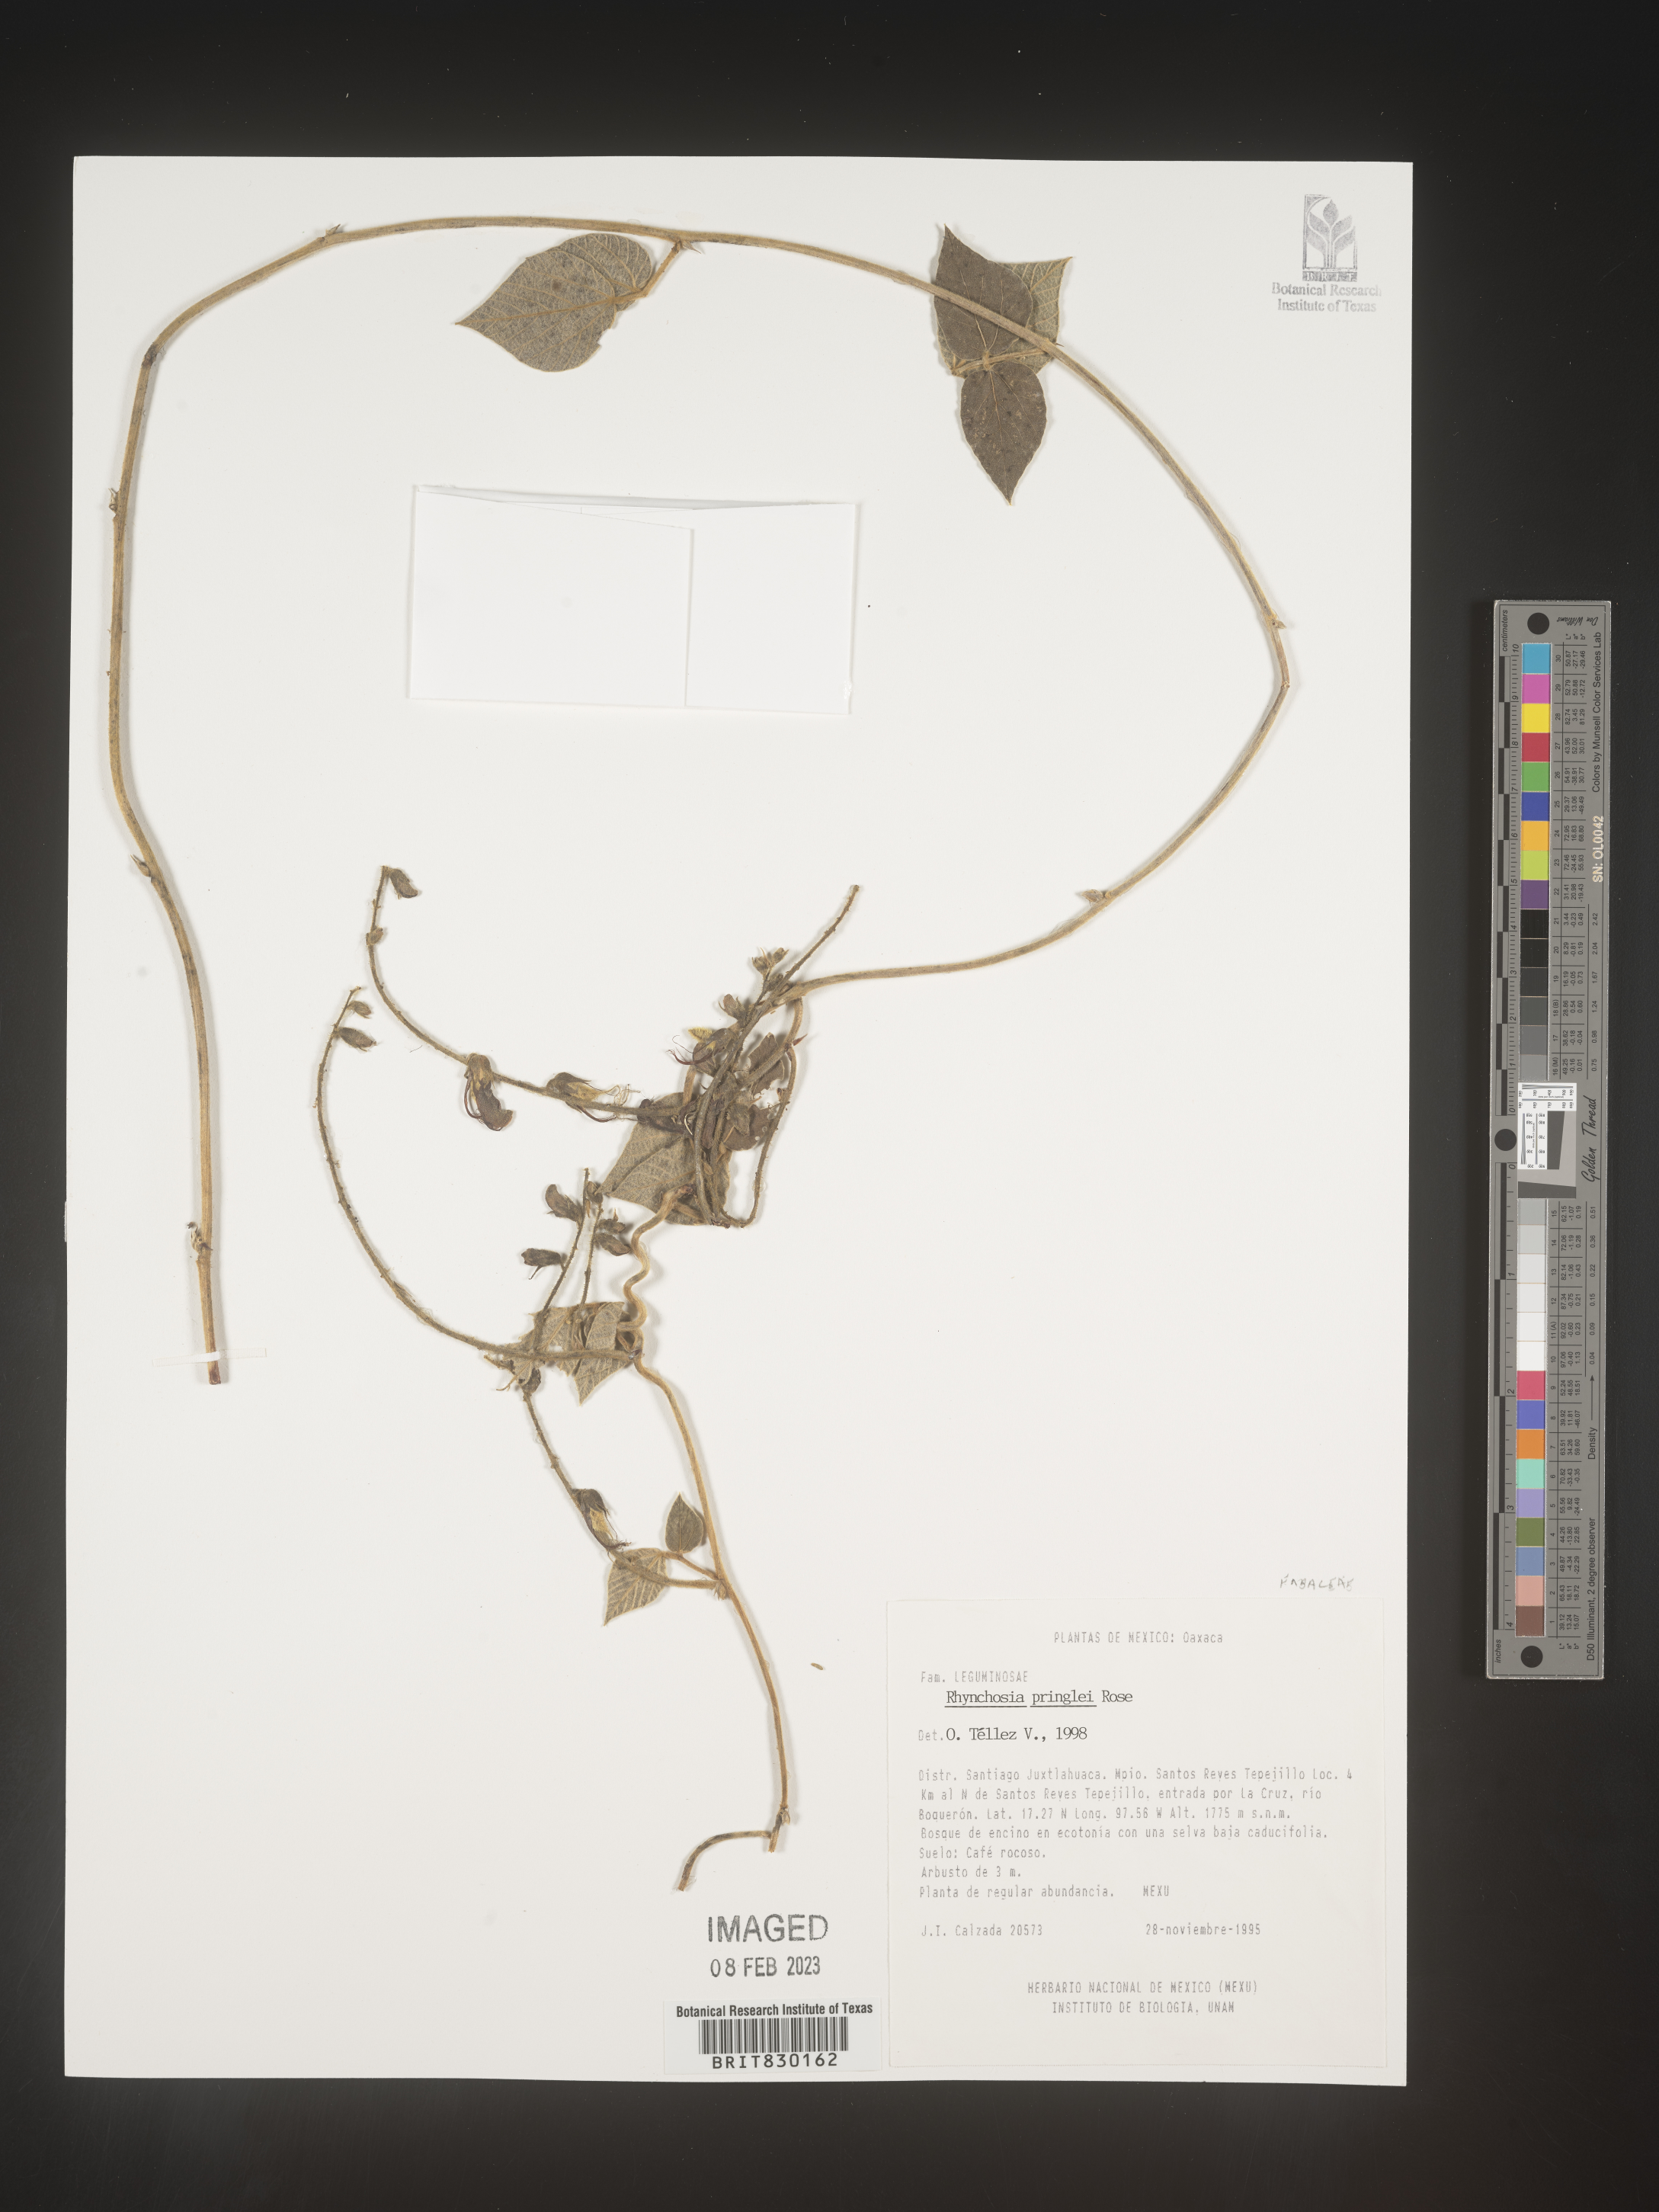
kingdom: Plantae
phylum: Tracheophyta
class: Magnoliopsida
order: Fabales
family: Fabaceae
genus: Rhynchosia
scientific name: Rhynchosia
